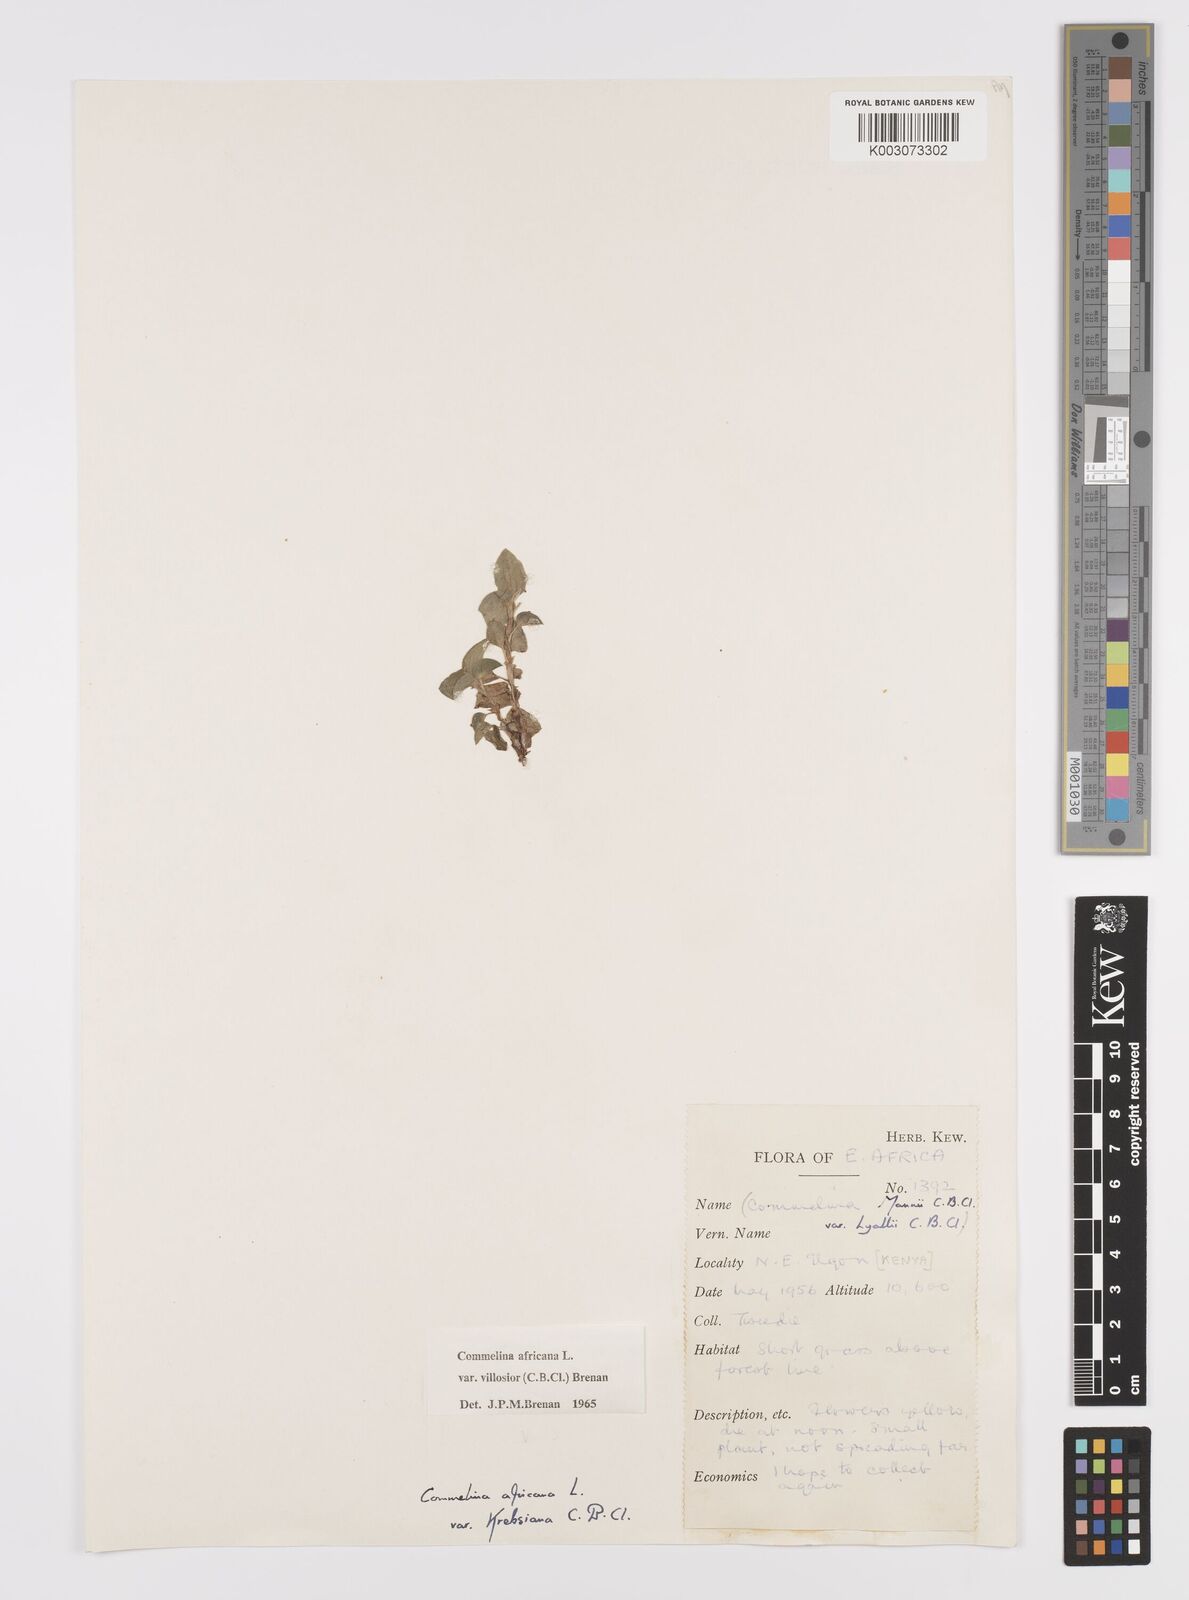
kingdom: Plantae
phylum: Tracheophyta
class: Liliopsida
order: Commelinales
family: Commelinaceae
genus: Commelina
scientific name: Commelina africana
